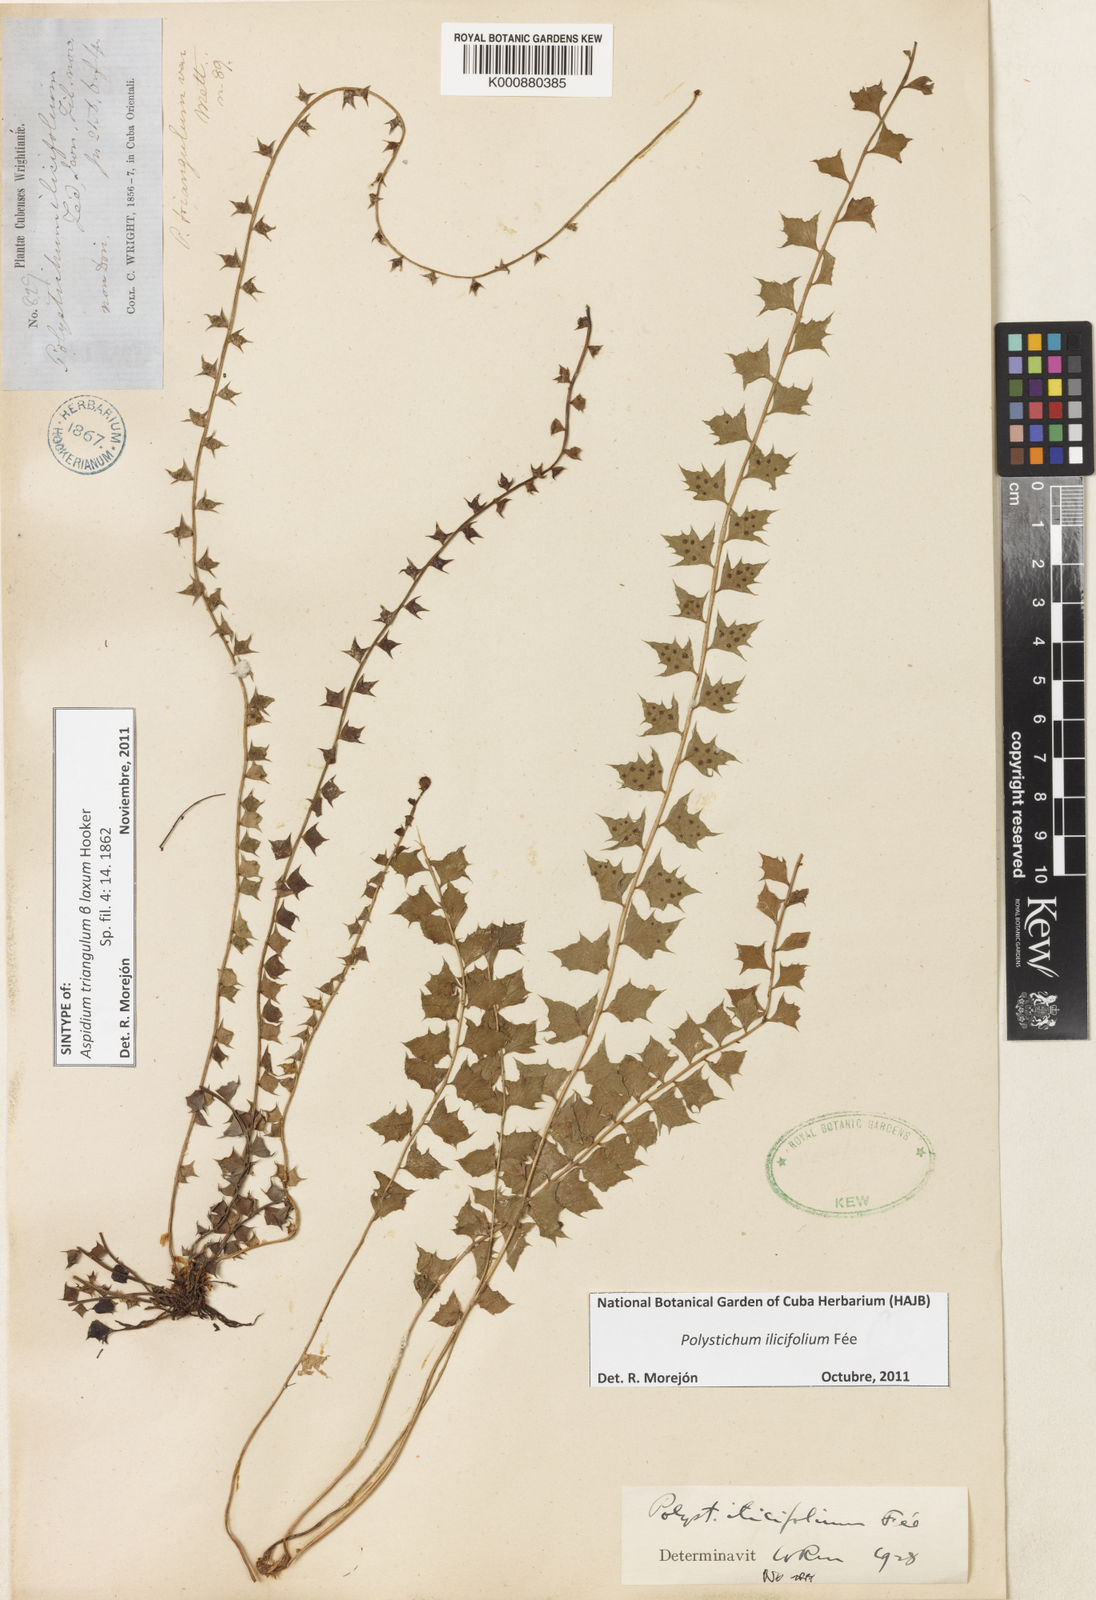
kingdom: Plantae
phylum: Tracheophyta
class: Polypodiopsida
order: Polypodiales
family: Dryopteridaceae
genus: Polystichum
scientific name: Polystichum stimulans
